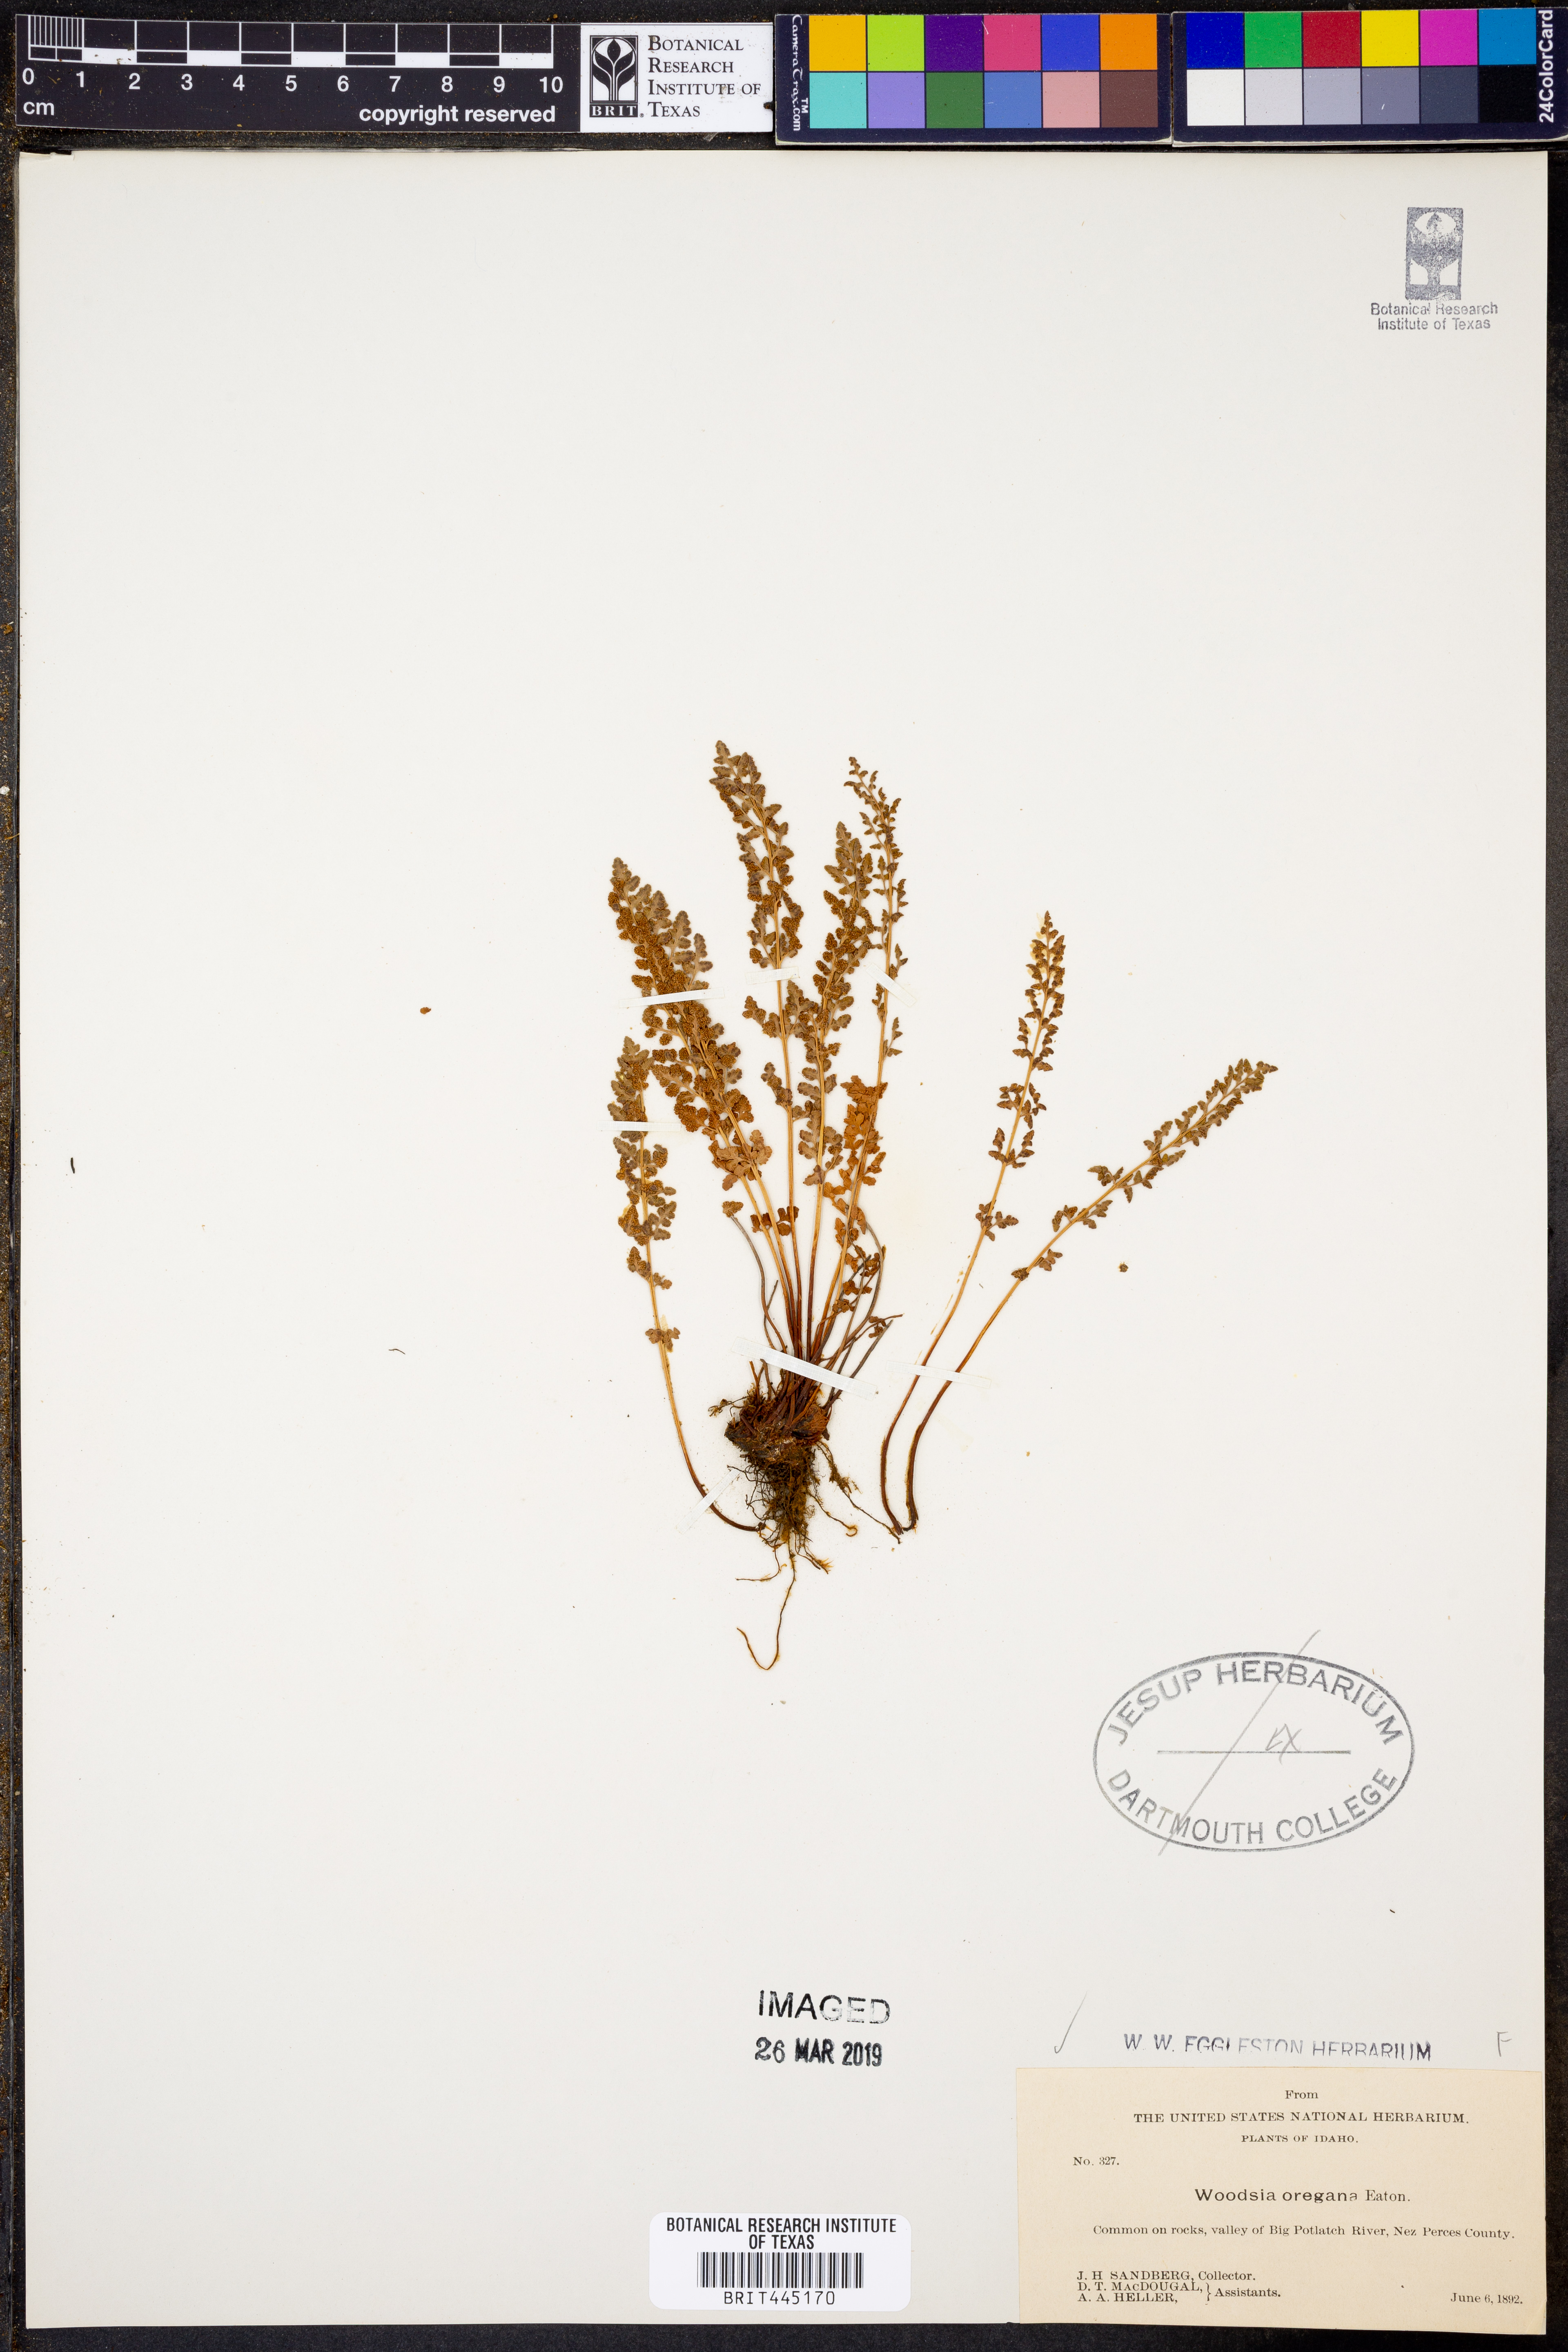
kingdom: Plantae
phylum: Tracheophyta
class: Polypodiopsida
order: Polypodiales
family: Woodsiaceae
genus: Physematium
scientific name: Physematium oreganum
